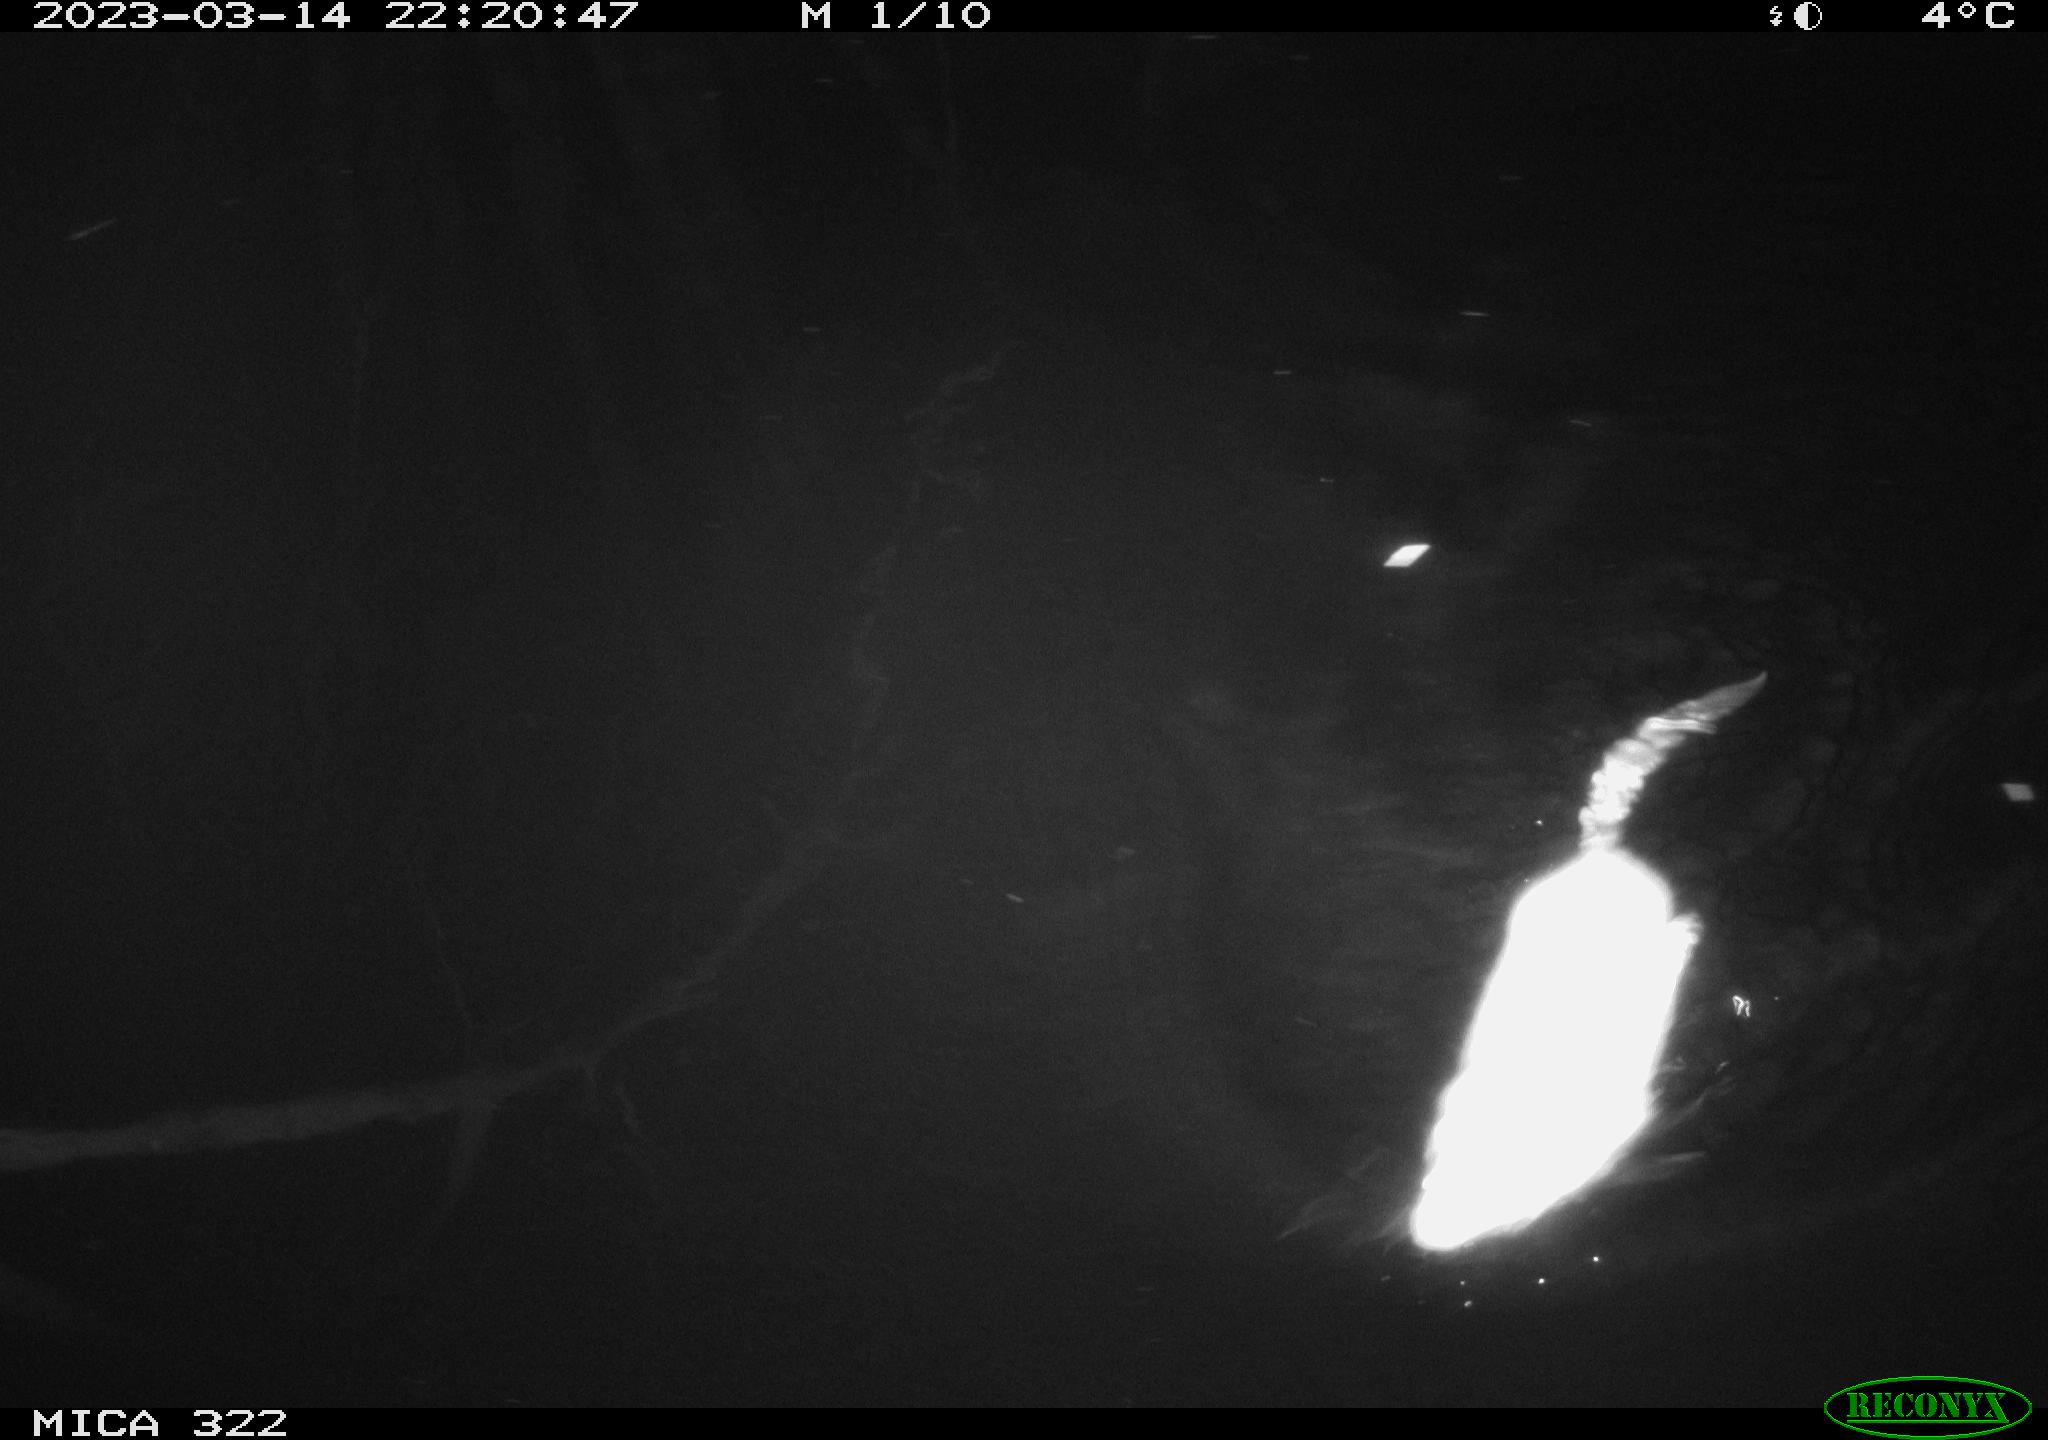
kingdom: Animalia
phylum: Chordata
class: Mammalia
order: Rodentia
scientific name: Rodentia
